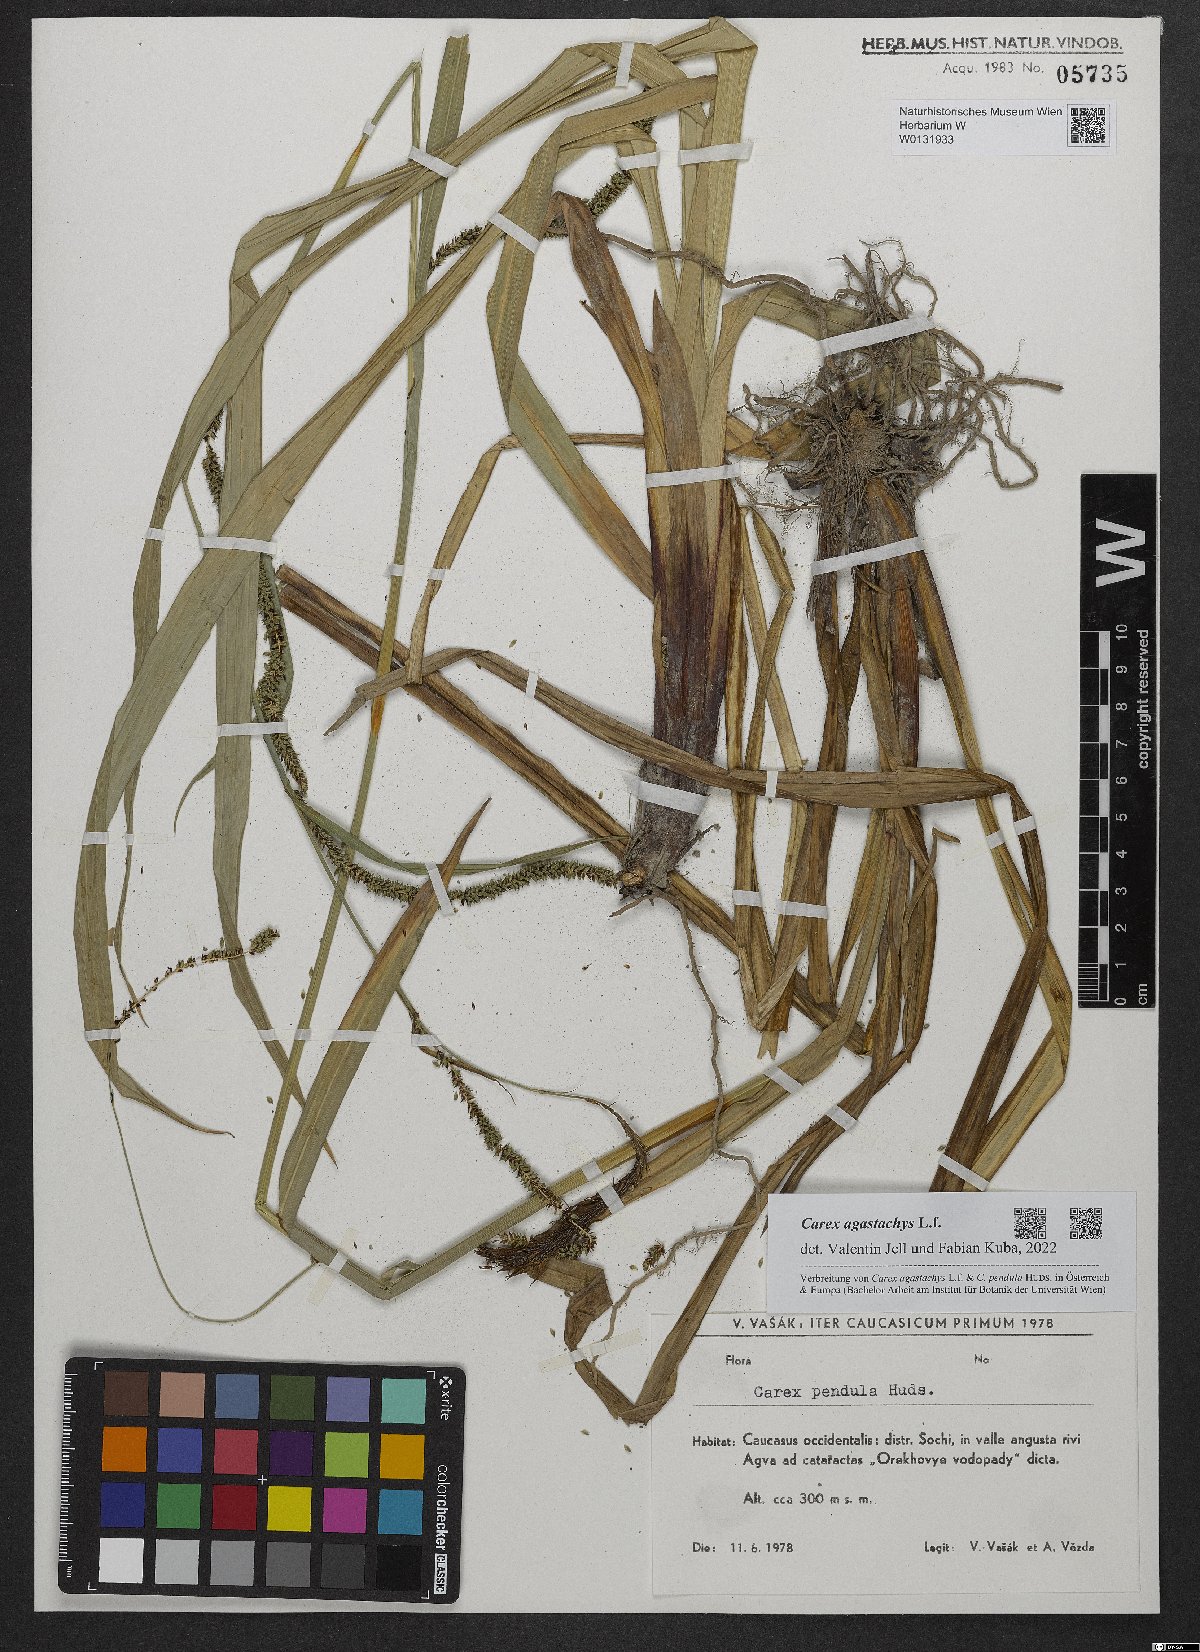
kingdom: Plantae
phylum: Tracheophyta
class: Liliopsida
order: Poales
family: Cyperaceae
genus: Carex
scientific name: Carex agastachys
